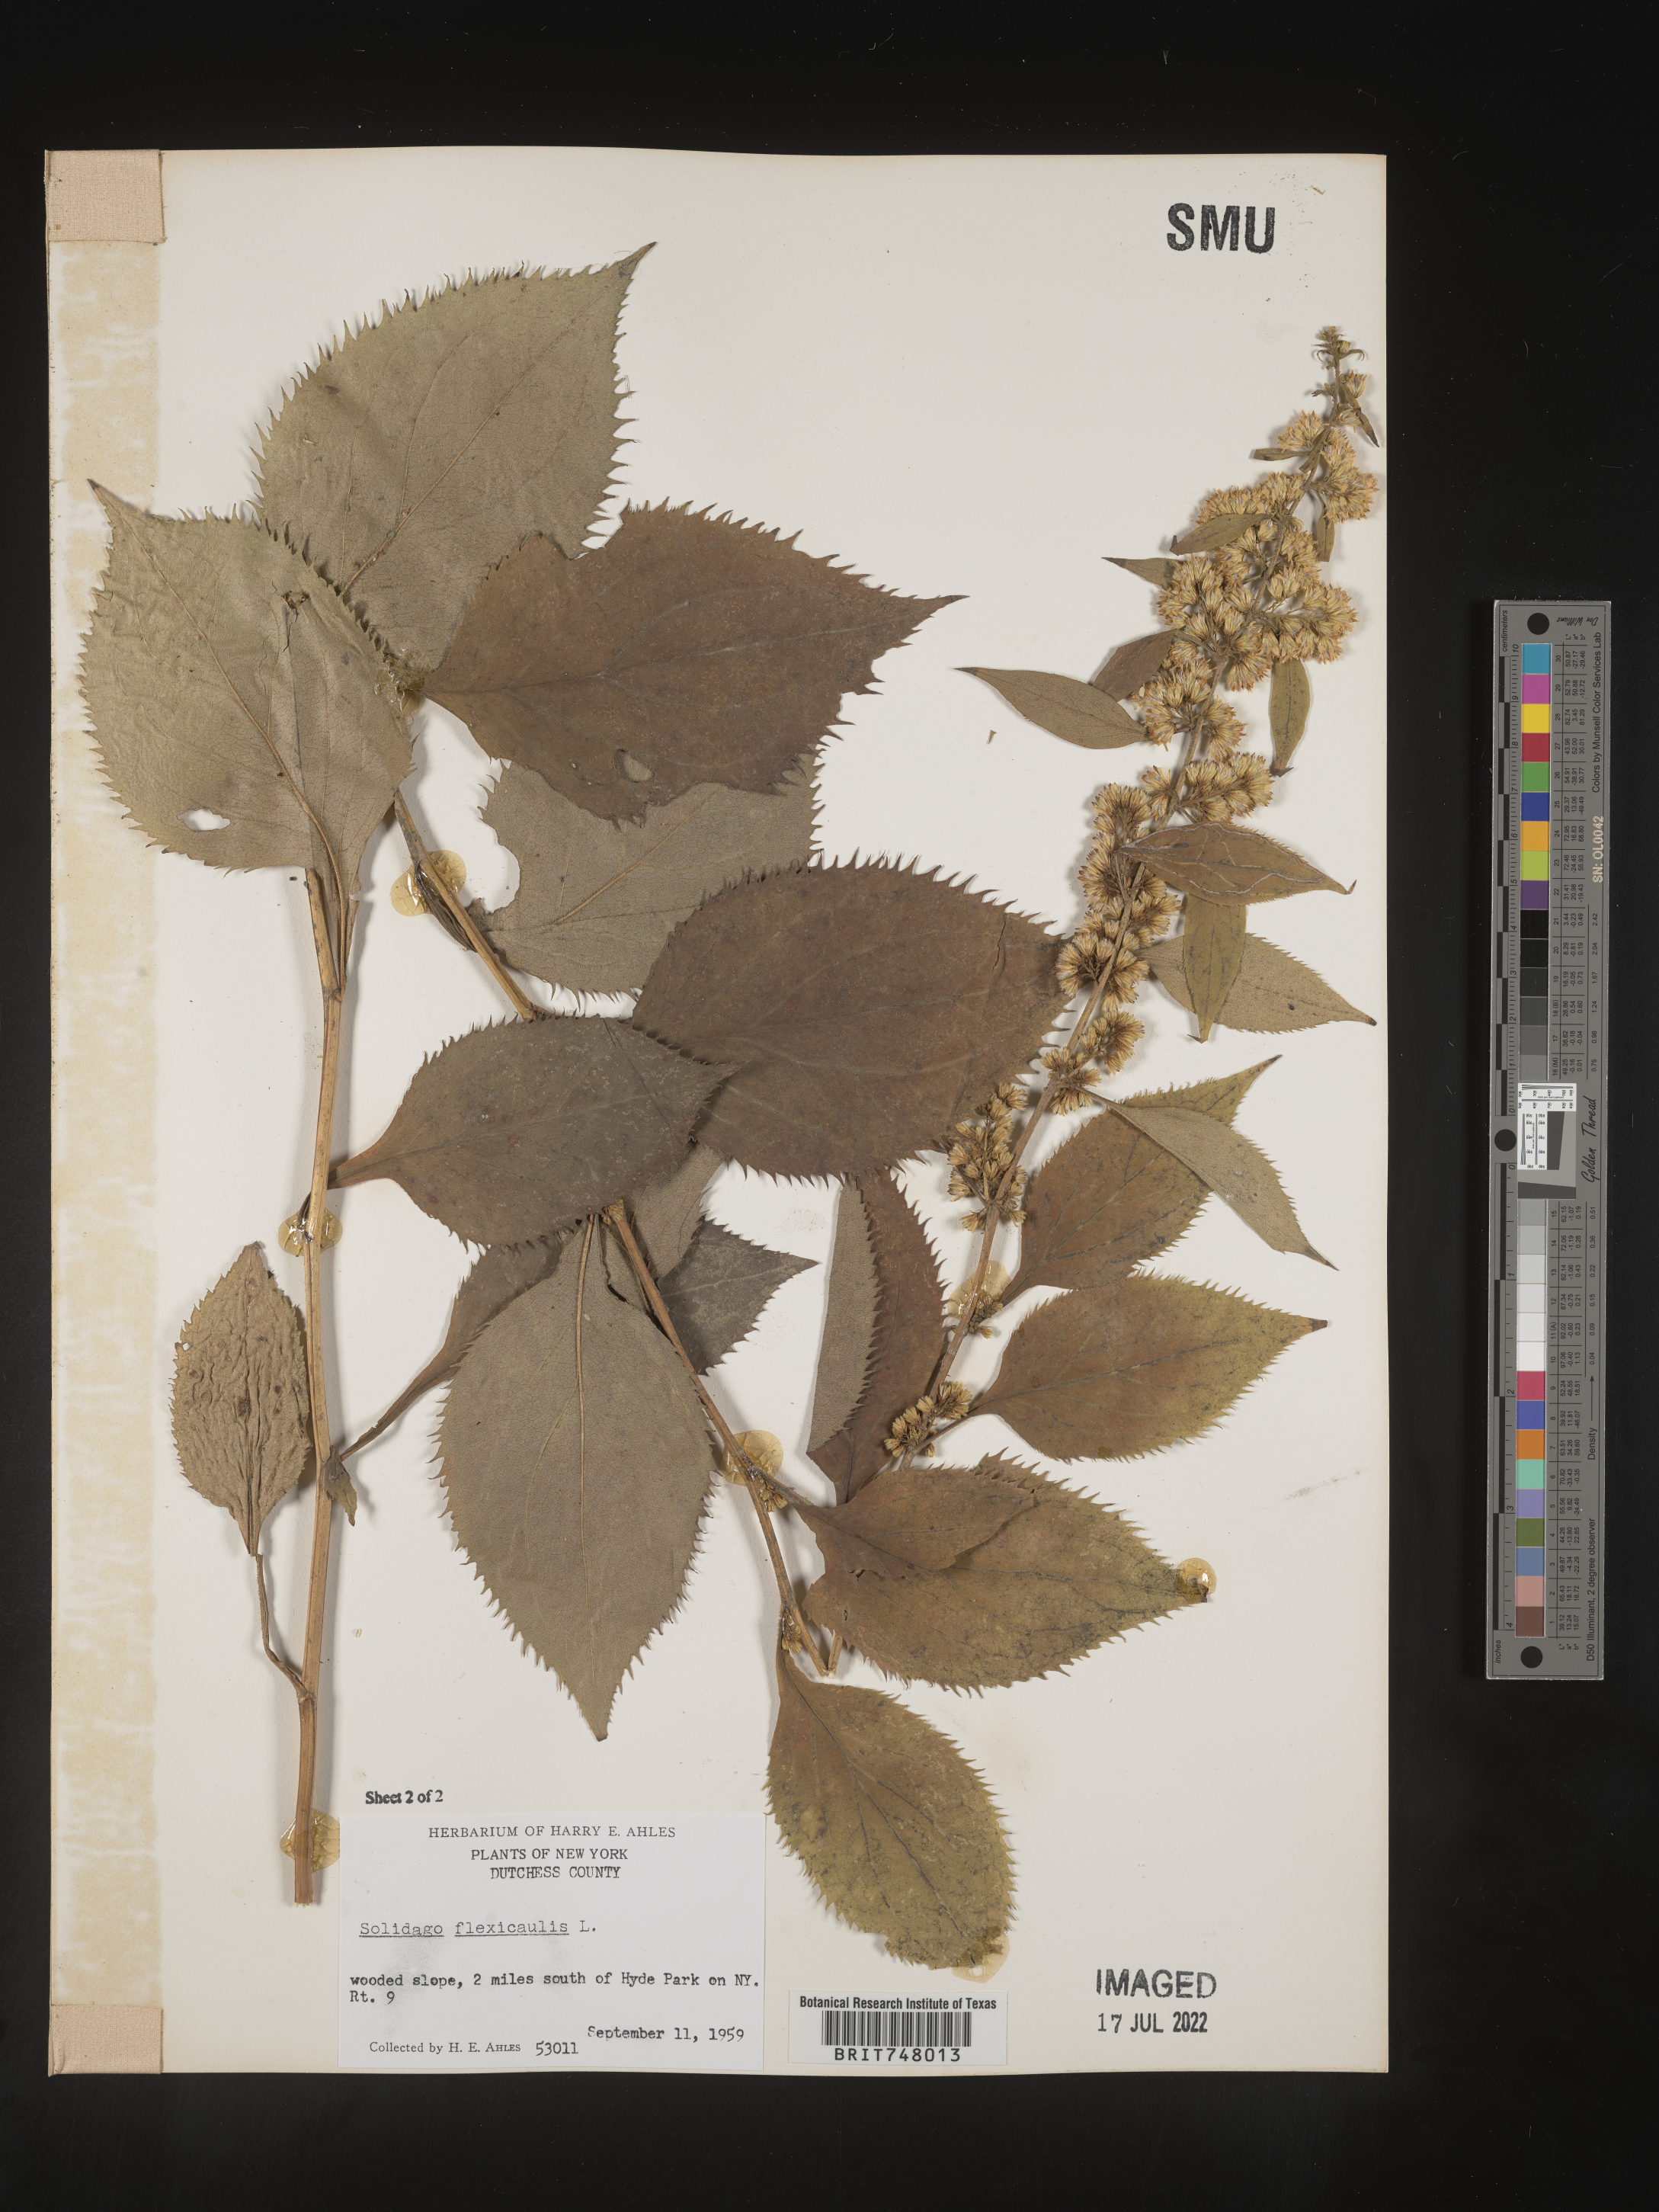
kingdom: Plantae
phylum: Tracheophyta
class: Magnoliopsida
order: Asterales
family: Asteraceae
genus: Solidago
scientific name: Solidago flexicaulis
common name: Zig-zag goldenrod
